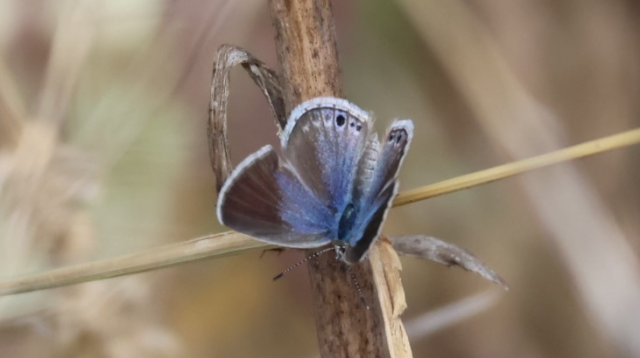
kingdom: Animalia
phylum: Arthropoda
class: Insecta
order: Lepidoptera
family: Lycaenidae
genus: Echinargus
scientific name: Echinargus isola
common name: Reakirt's Blue
